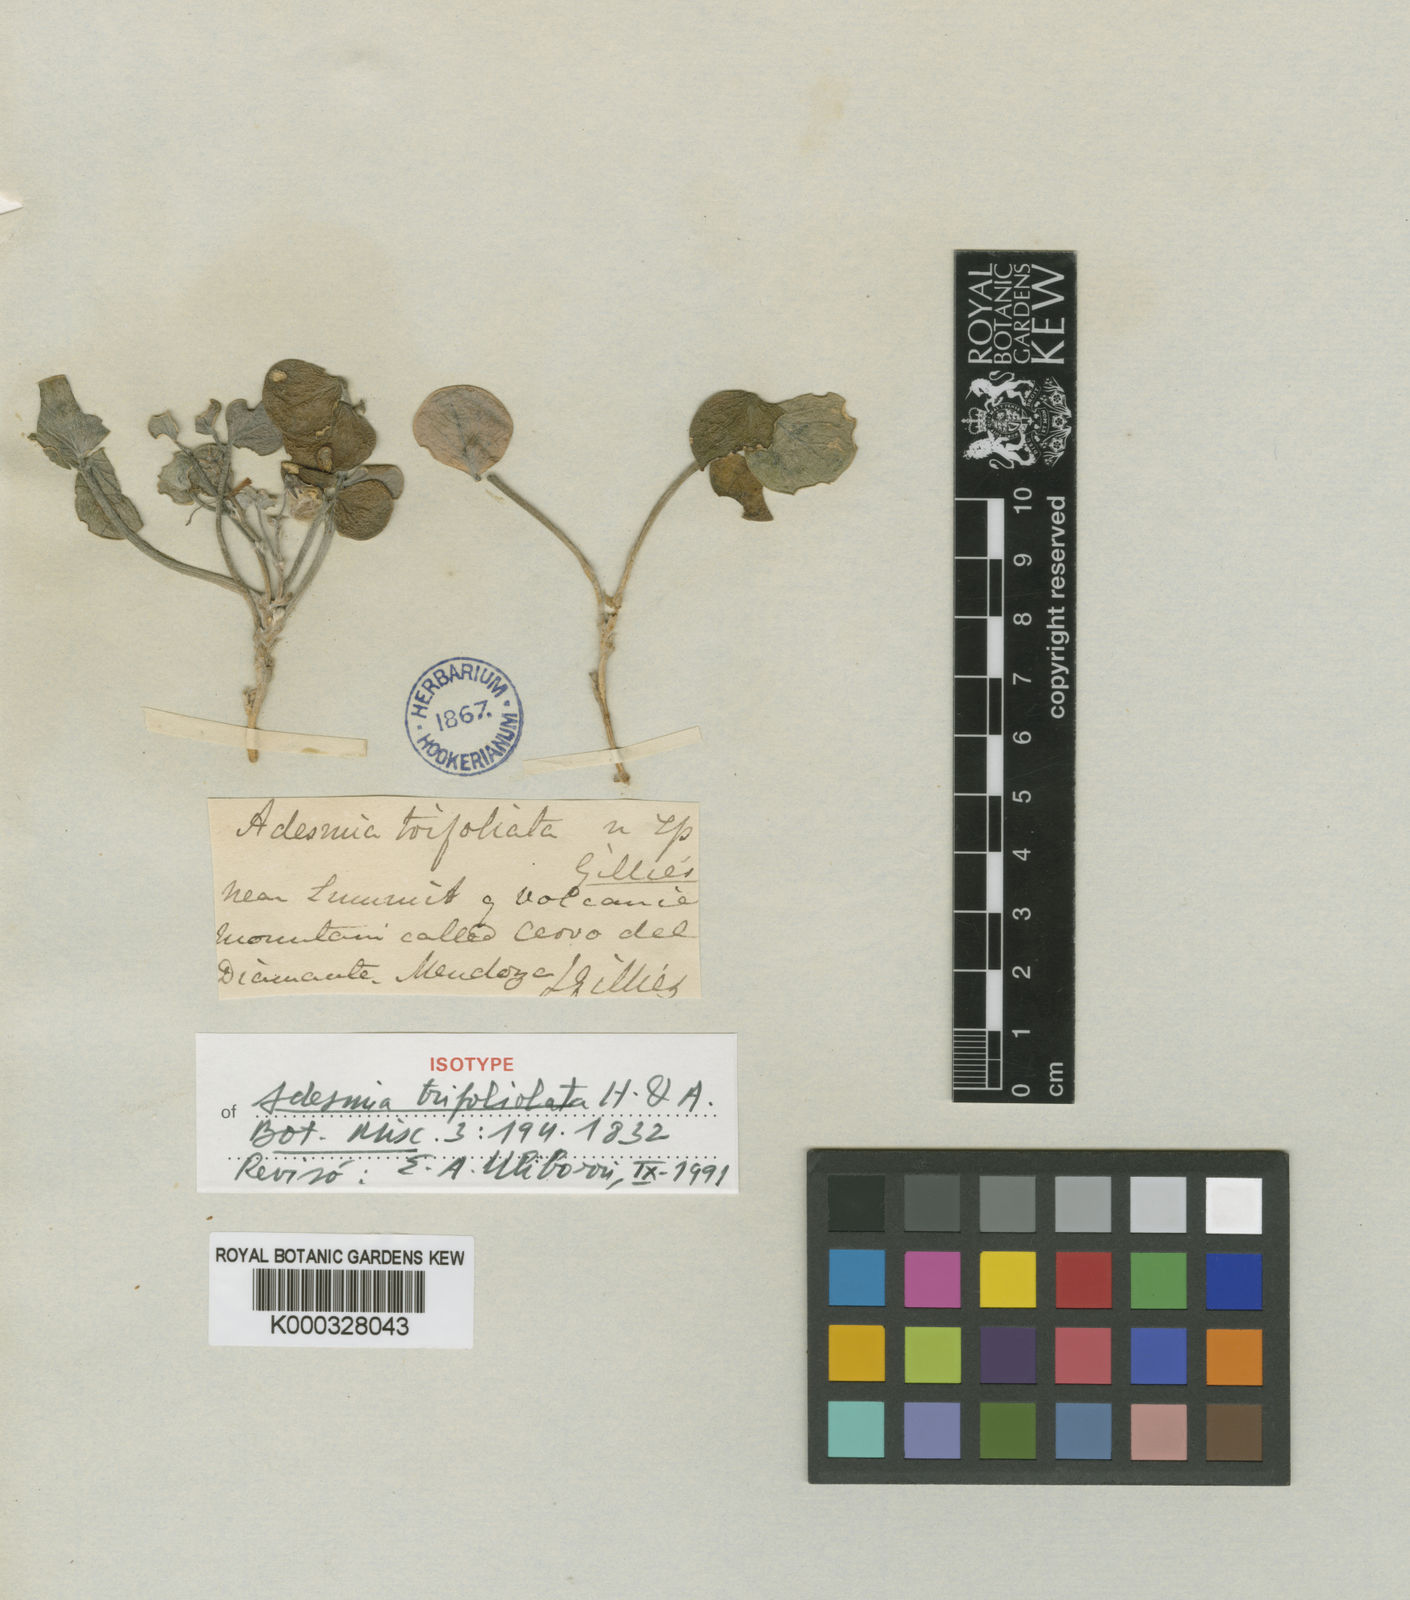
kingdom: Plantae
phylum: Tracheophyta
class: Magnoliopsida
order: Fabales
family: Fabaceae
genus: Adesmia
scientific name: Adesmia
